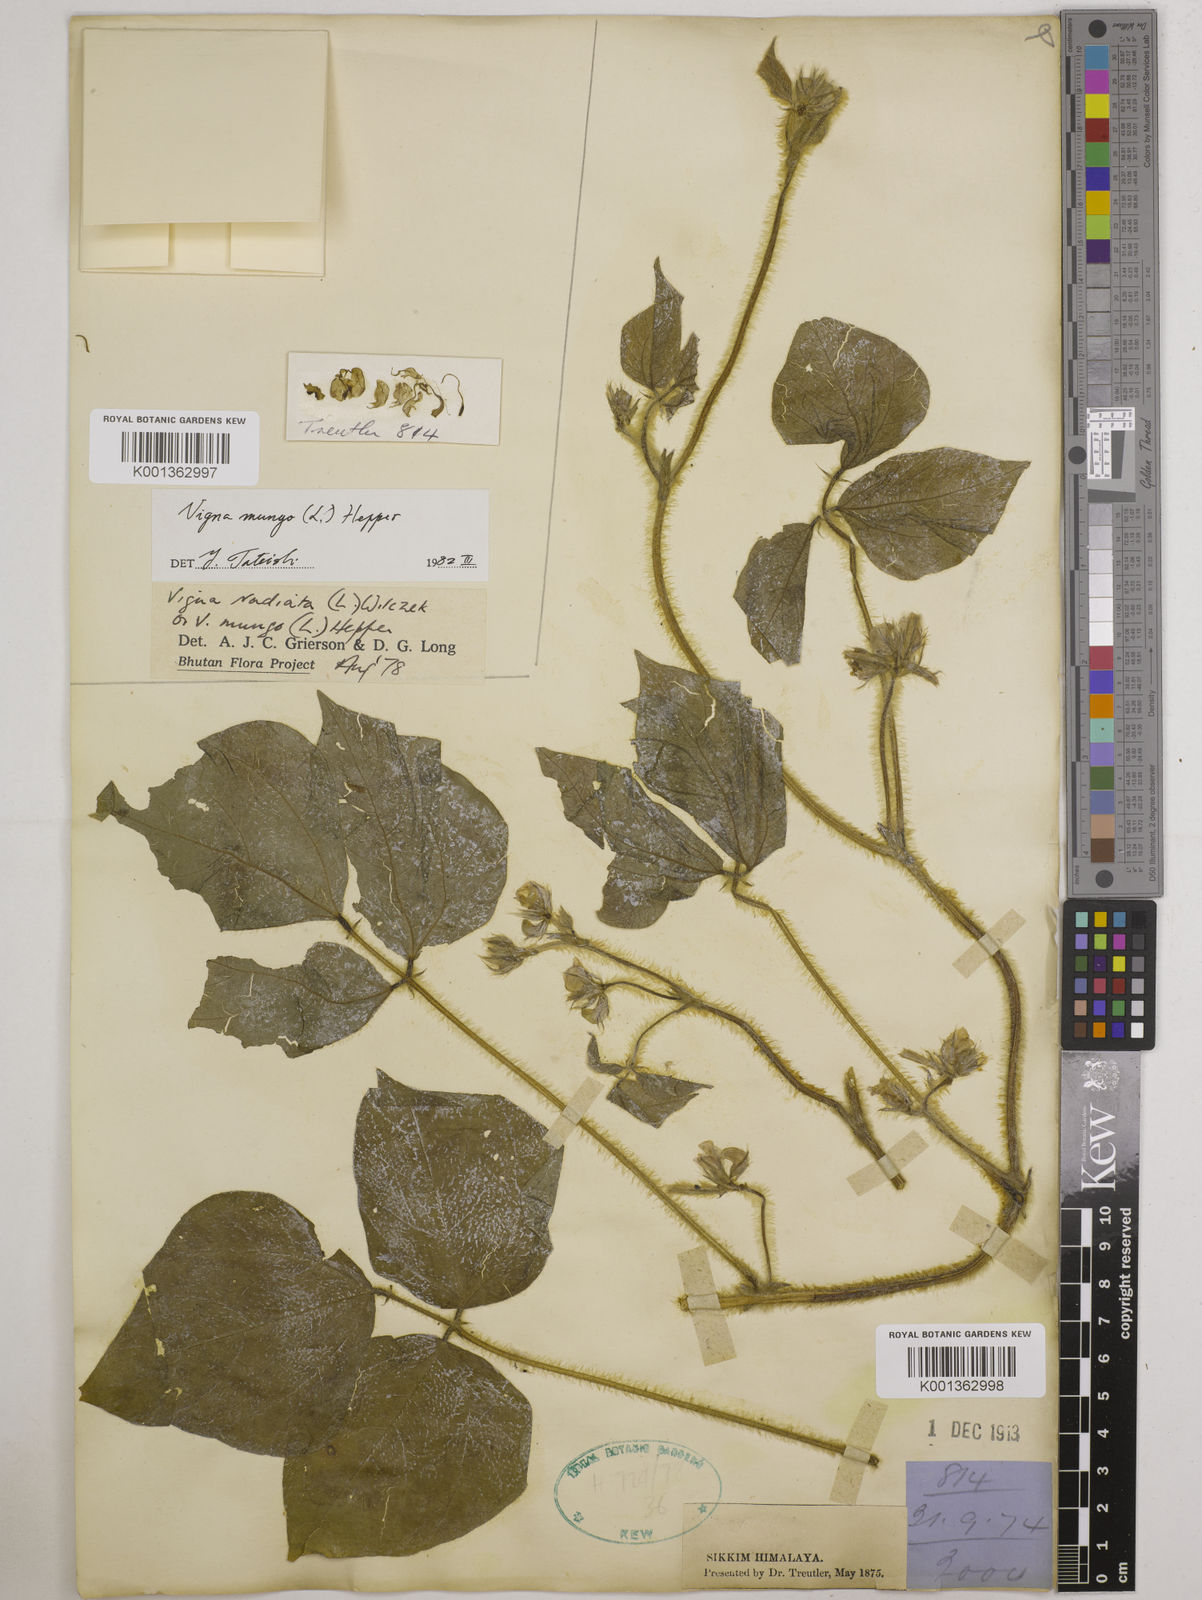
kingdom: Plantae
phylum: Tracheophyta
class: Magnoliopsida
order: Fabales
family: Fabaceae
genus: Vigna
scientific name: Vigna mungo
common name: Black gram
